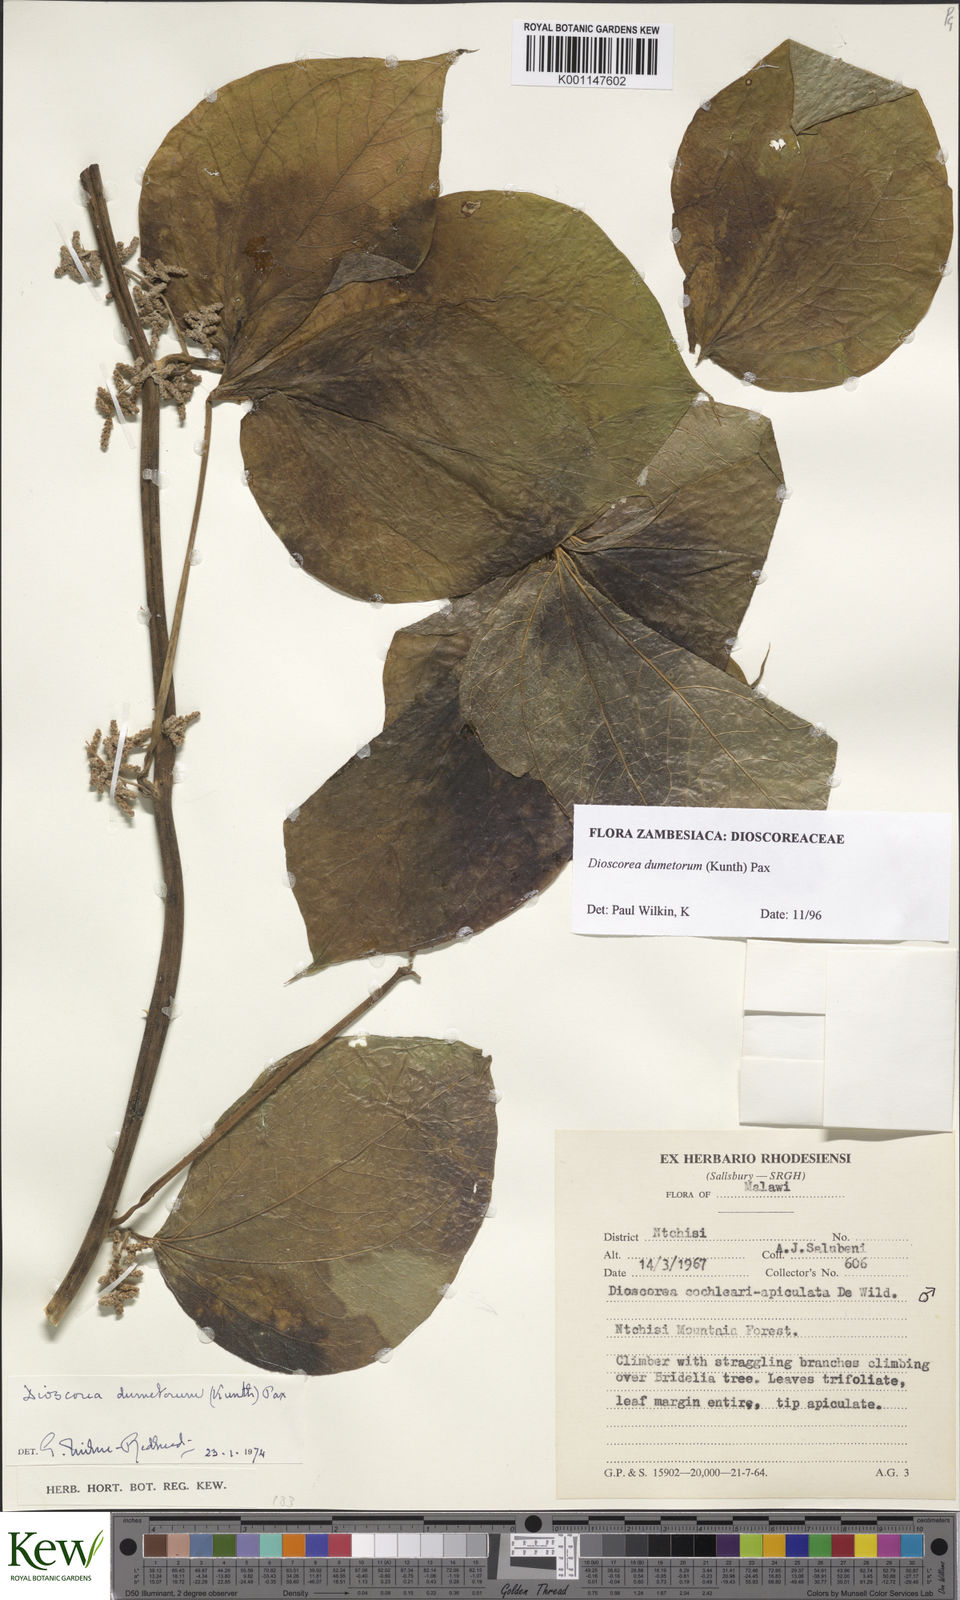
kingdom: Plantae
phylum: Tracheophyta
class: Liliopsida
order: Dioscoreales
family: Dioscoreaceae
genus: Dioscorea
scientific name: Dioscorea dumetorum
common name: African bitter yam
